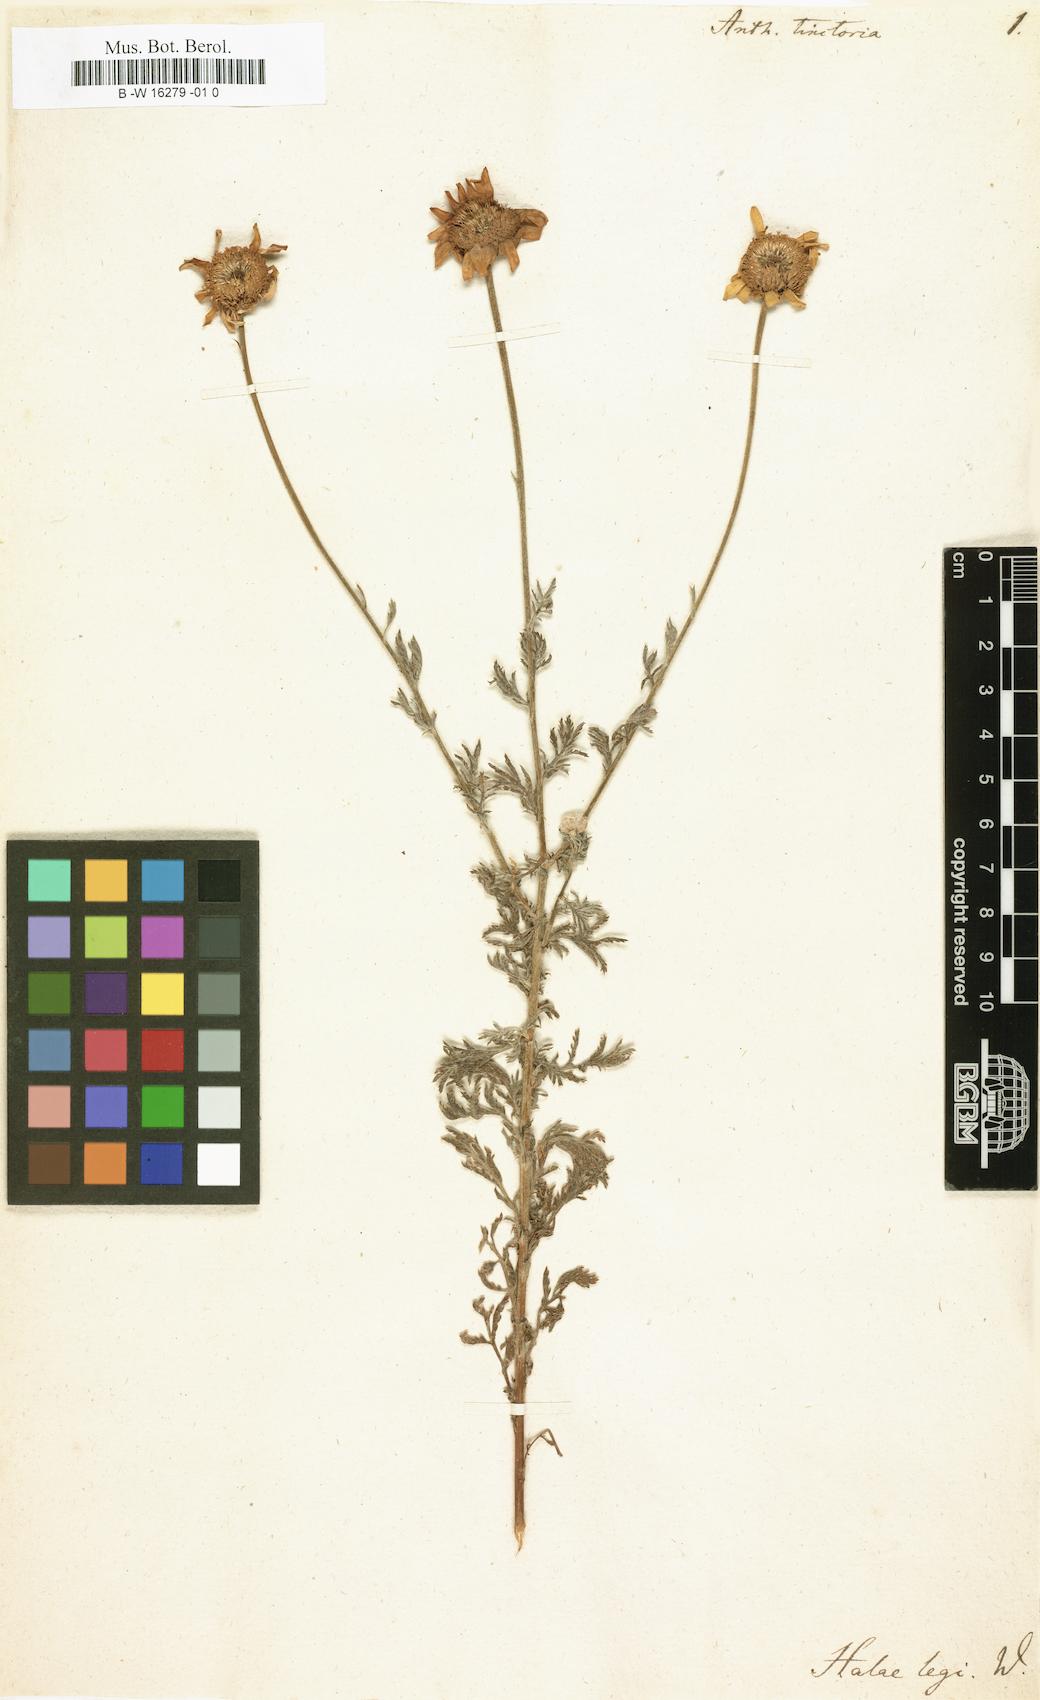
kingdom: Plantae
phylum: Tracheophyta
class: Magnoliopsida
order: Asterales
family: Asteraceae
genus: Cota
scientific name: Cota tinctoria
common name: Golden chamomile
